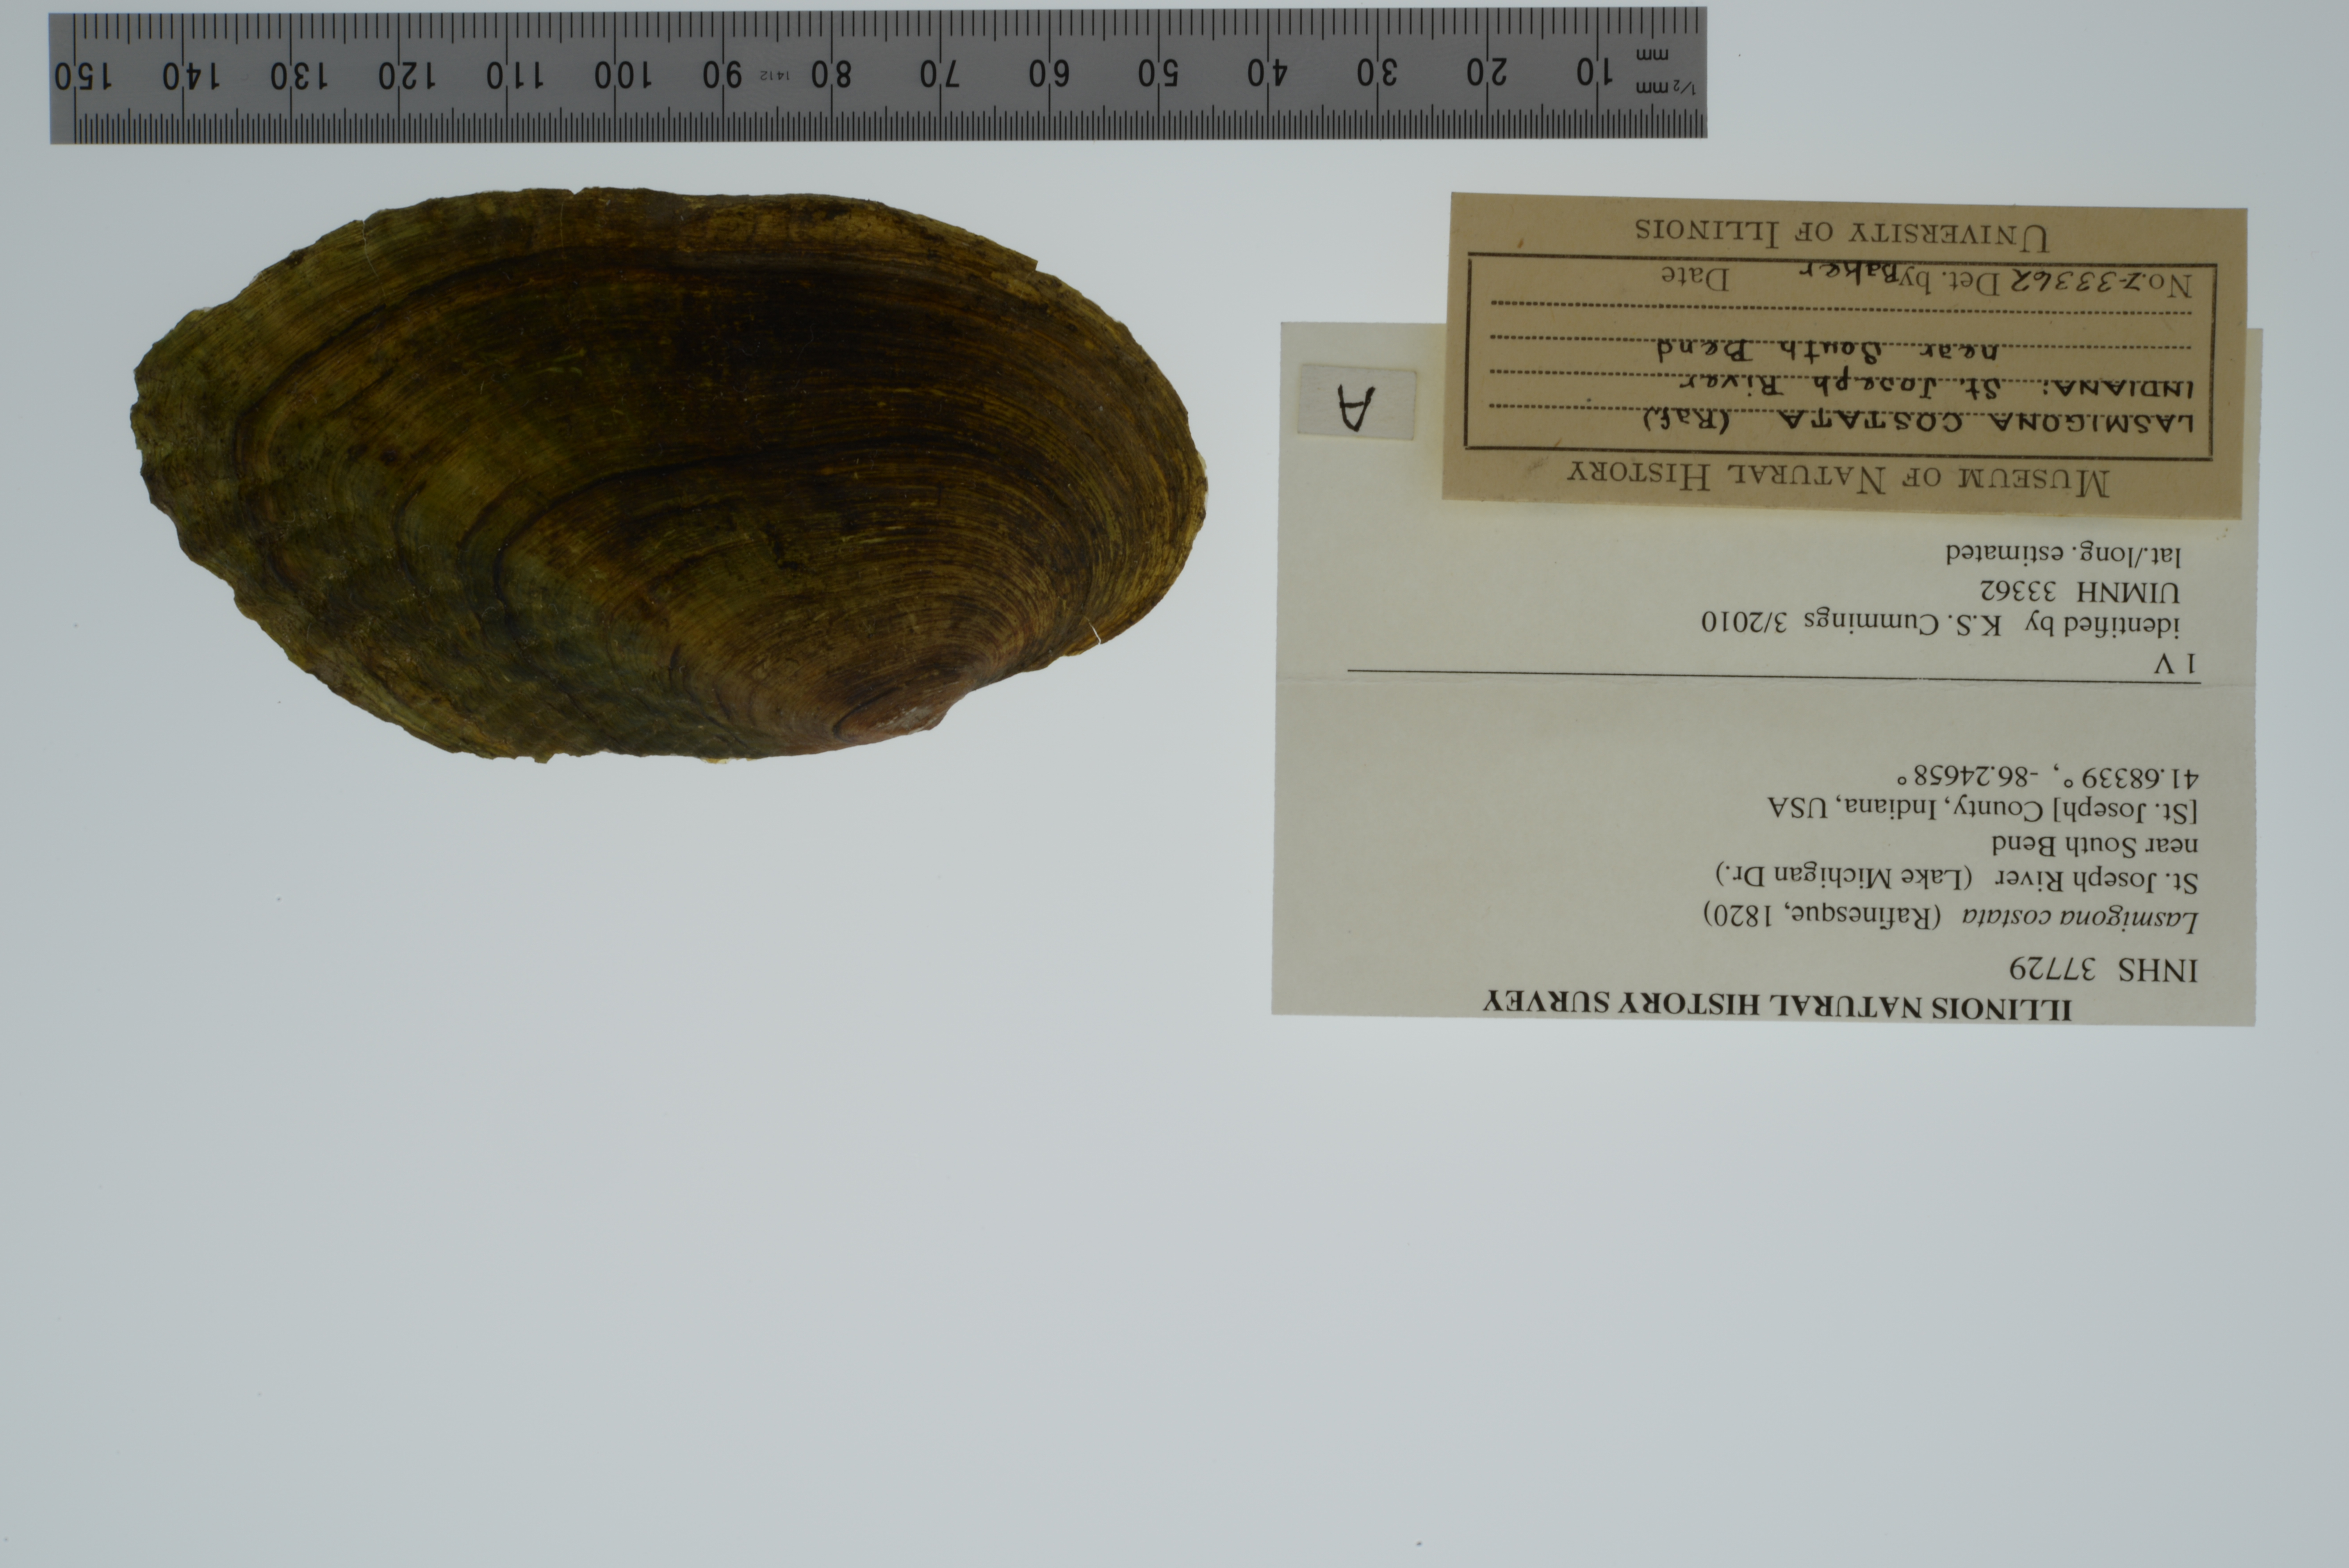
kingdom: Animalia
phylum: Mollusca
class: Bivalvia
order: Unionida
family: Unionidae
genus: Lasmigona
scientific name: Lasmigona costata
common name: Flutedshell
